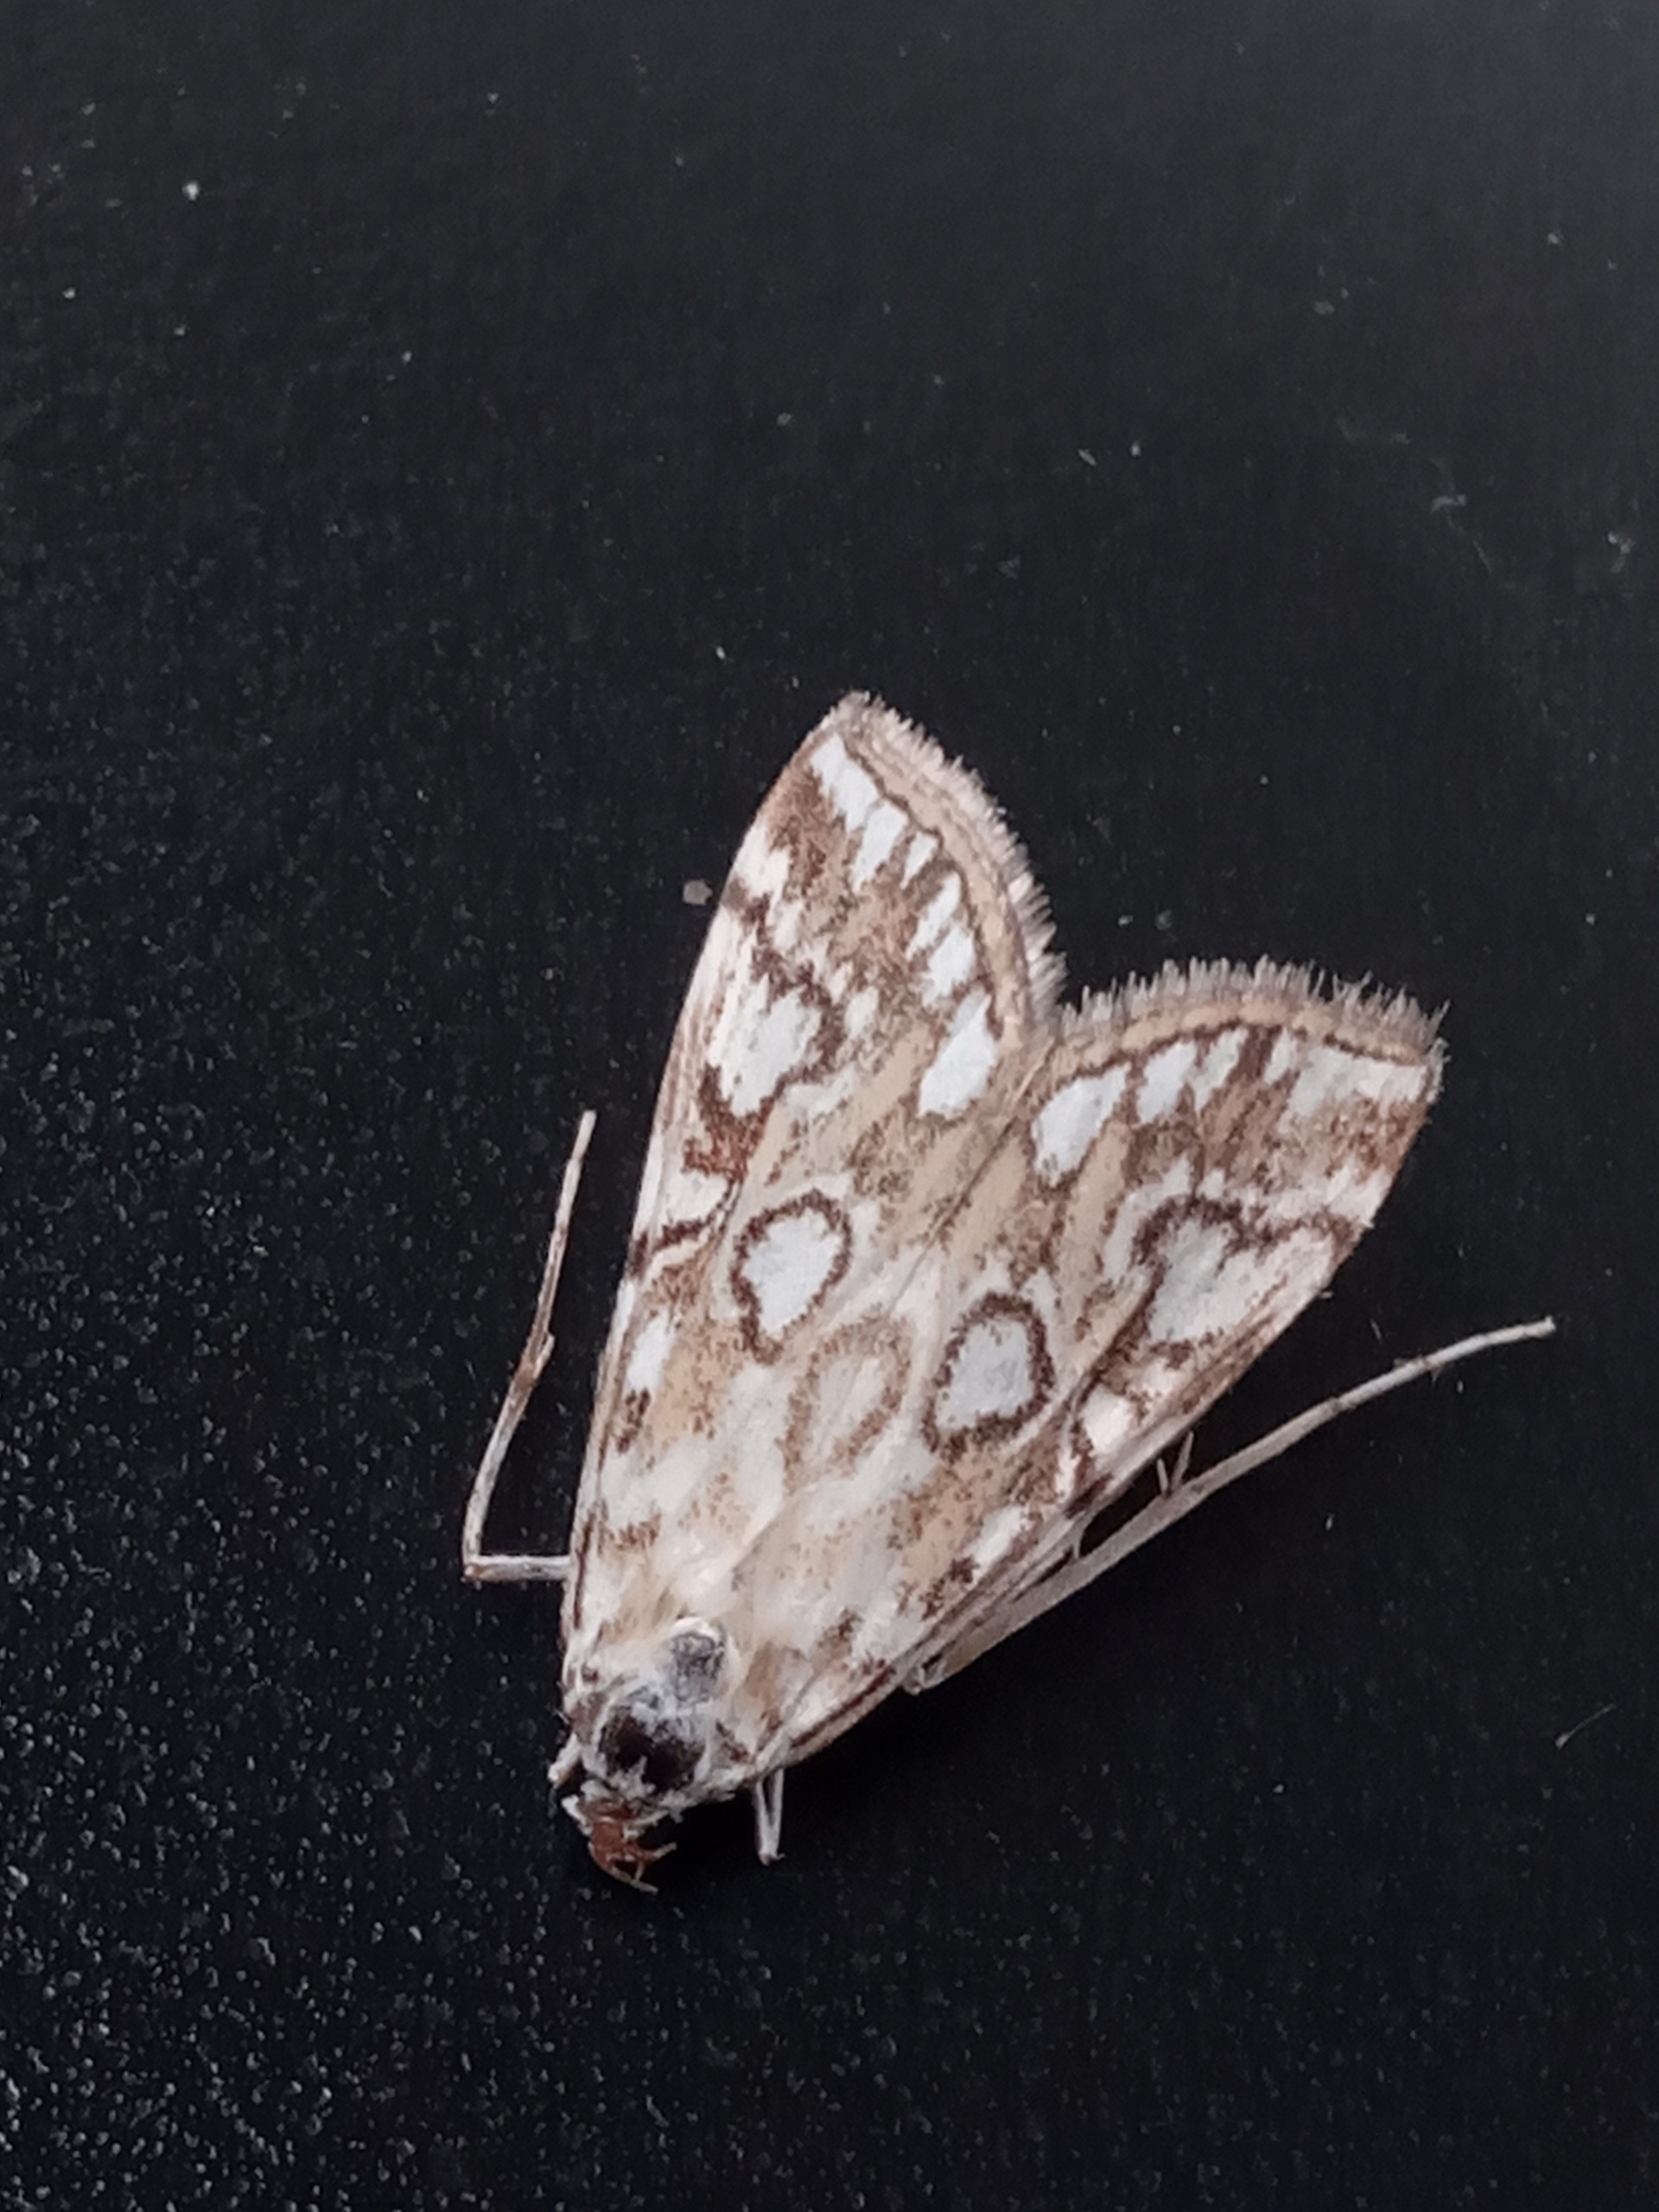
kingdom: Animalia
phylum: Arthropoda
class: Insecta
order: Lepidoptera
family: Crambidae
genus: Elophila
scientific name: Elophila nymphaeata
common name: Åkandehalvmøl
